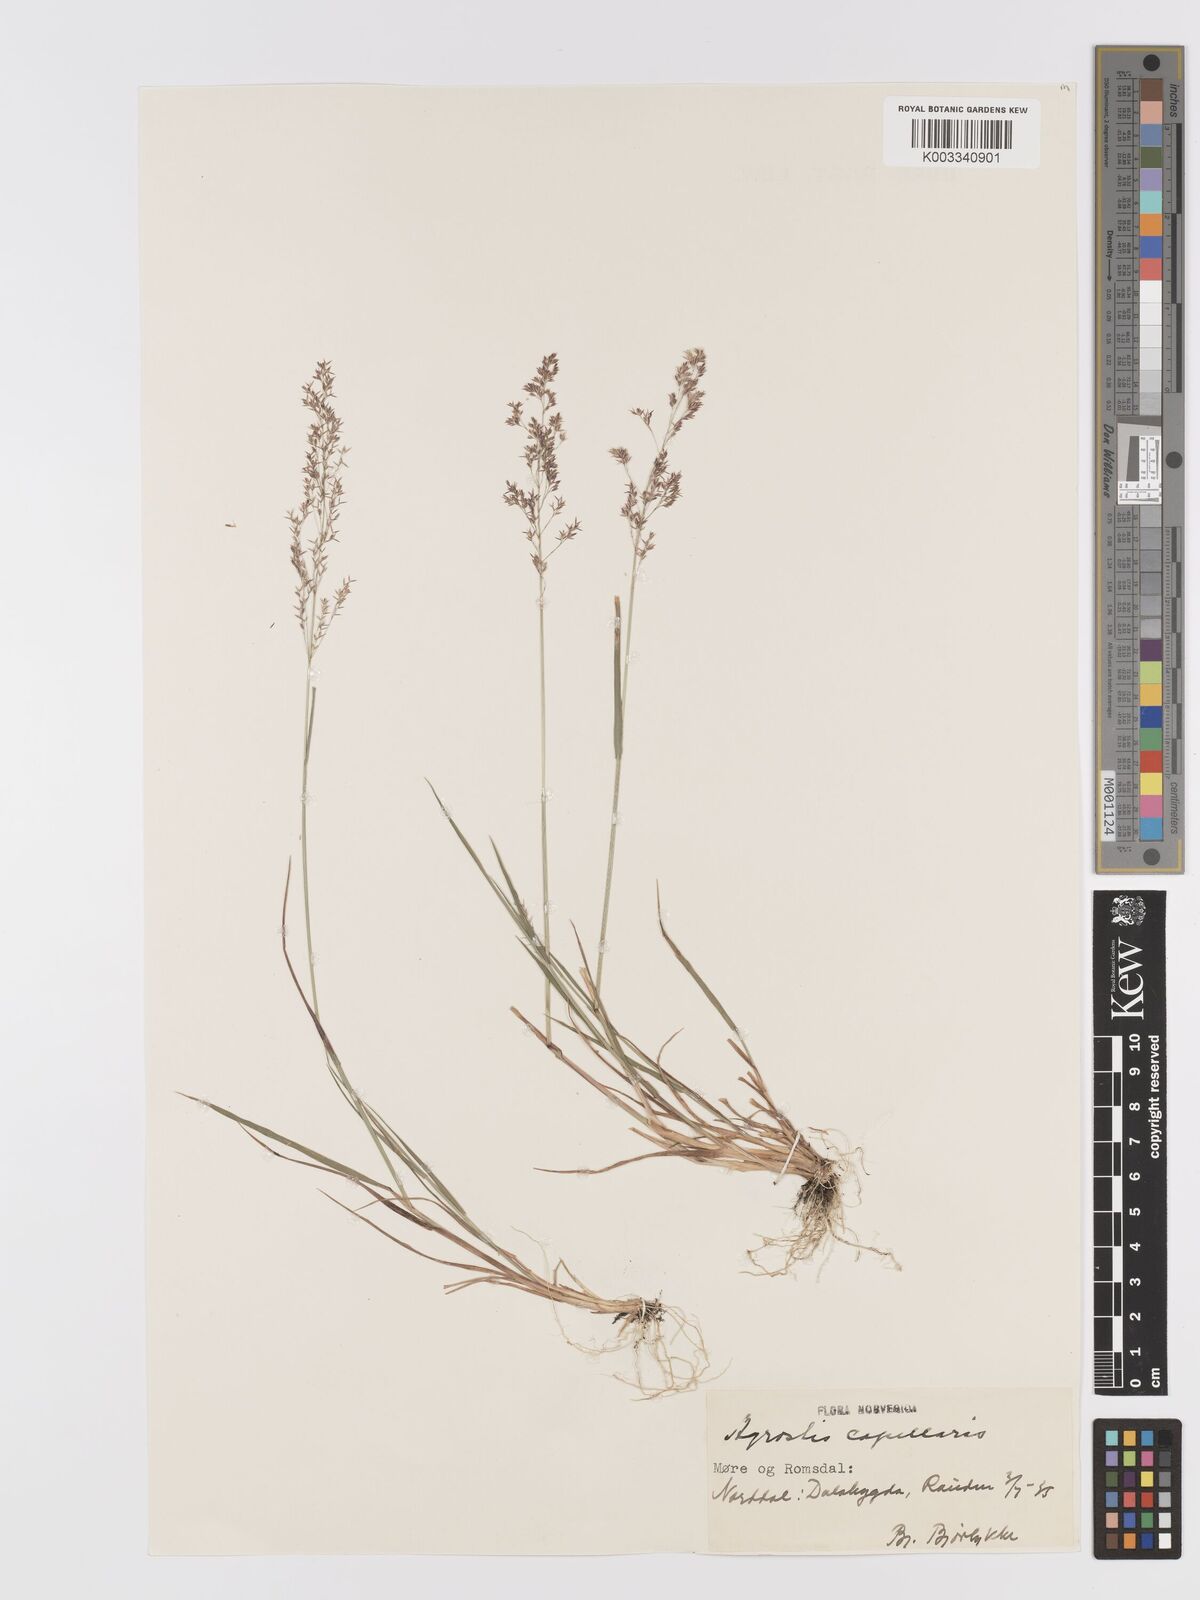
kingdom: Plantae
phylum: Tracheophyta
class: Liliopsida
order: Poales
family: Poaceae
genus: Agrostis
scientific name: Agrostis capillaris
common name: Colonial bentgrass
